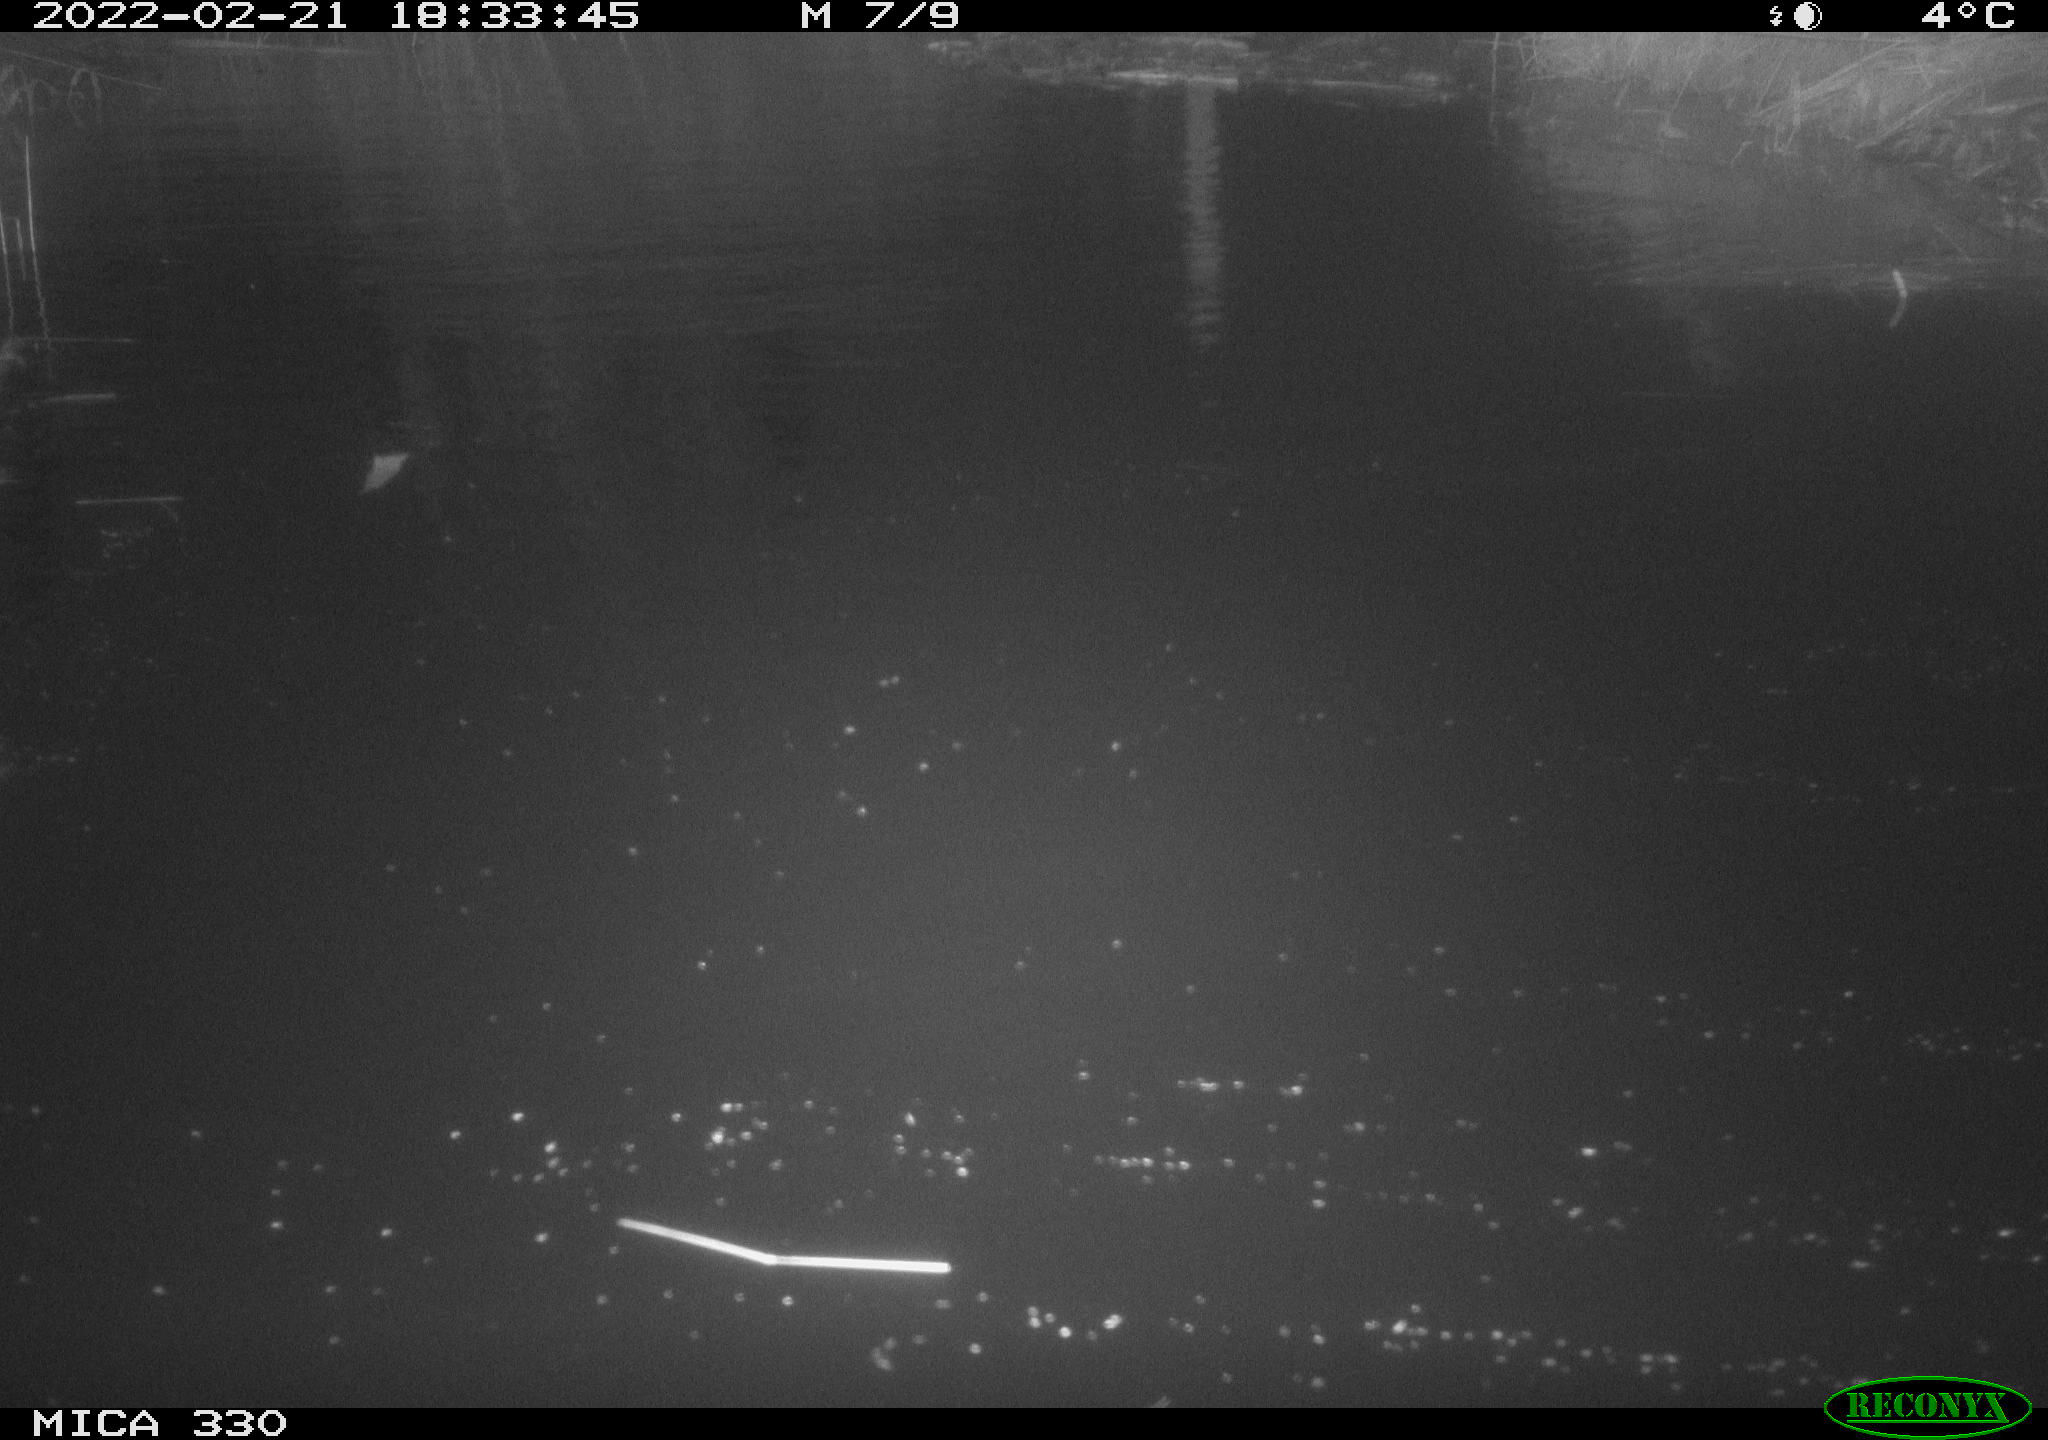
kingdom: Animalia
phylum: Chordata
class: Aves
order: Anseriformes
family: Anatidae
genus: Anas
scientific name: Anas platyrhynchos
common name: Mallard
